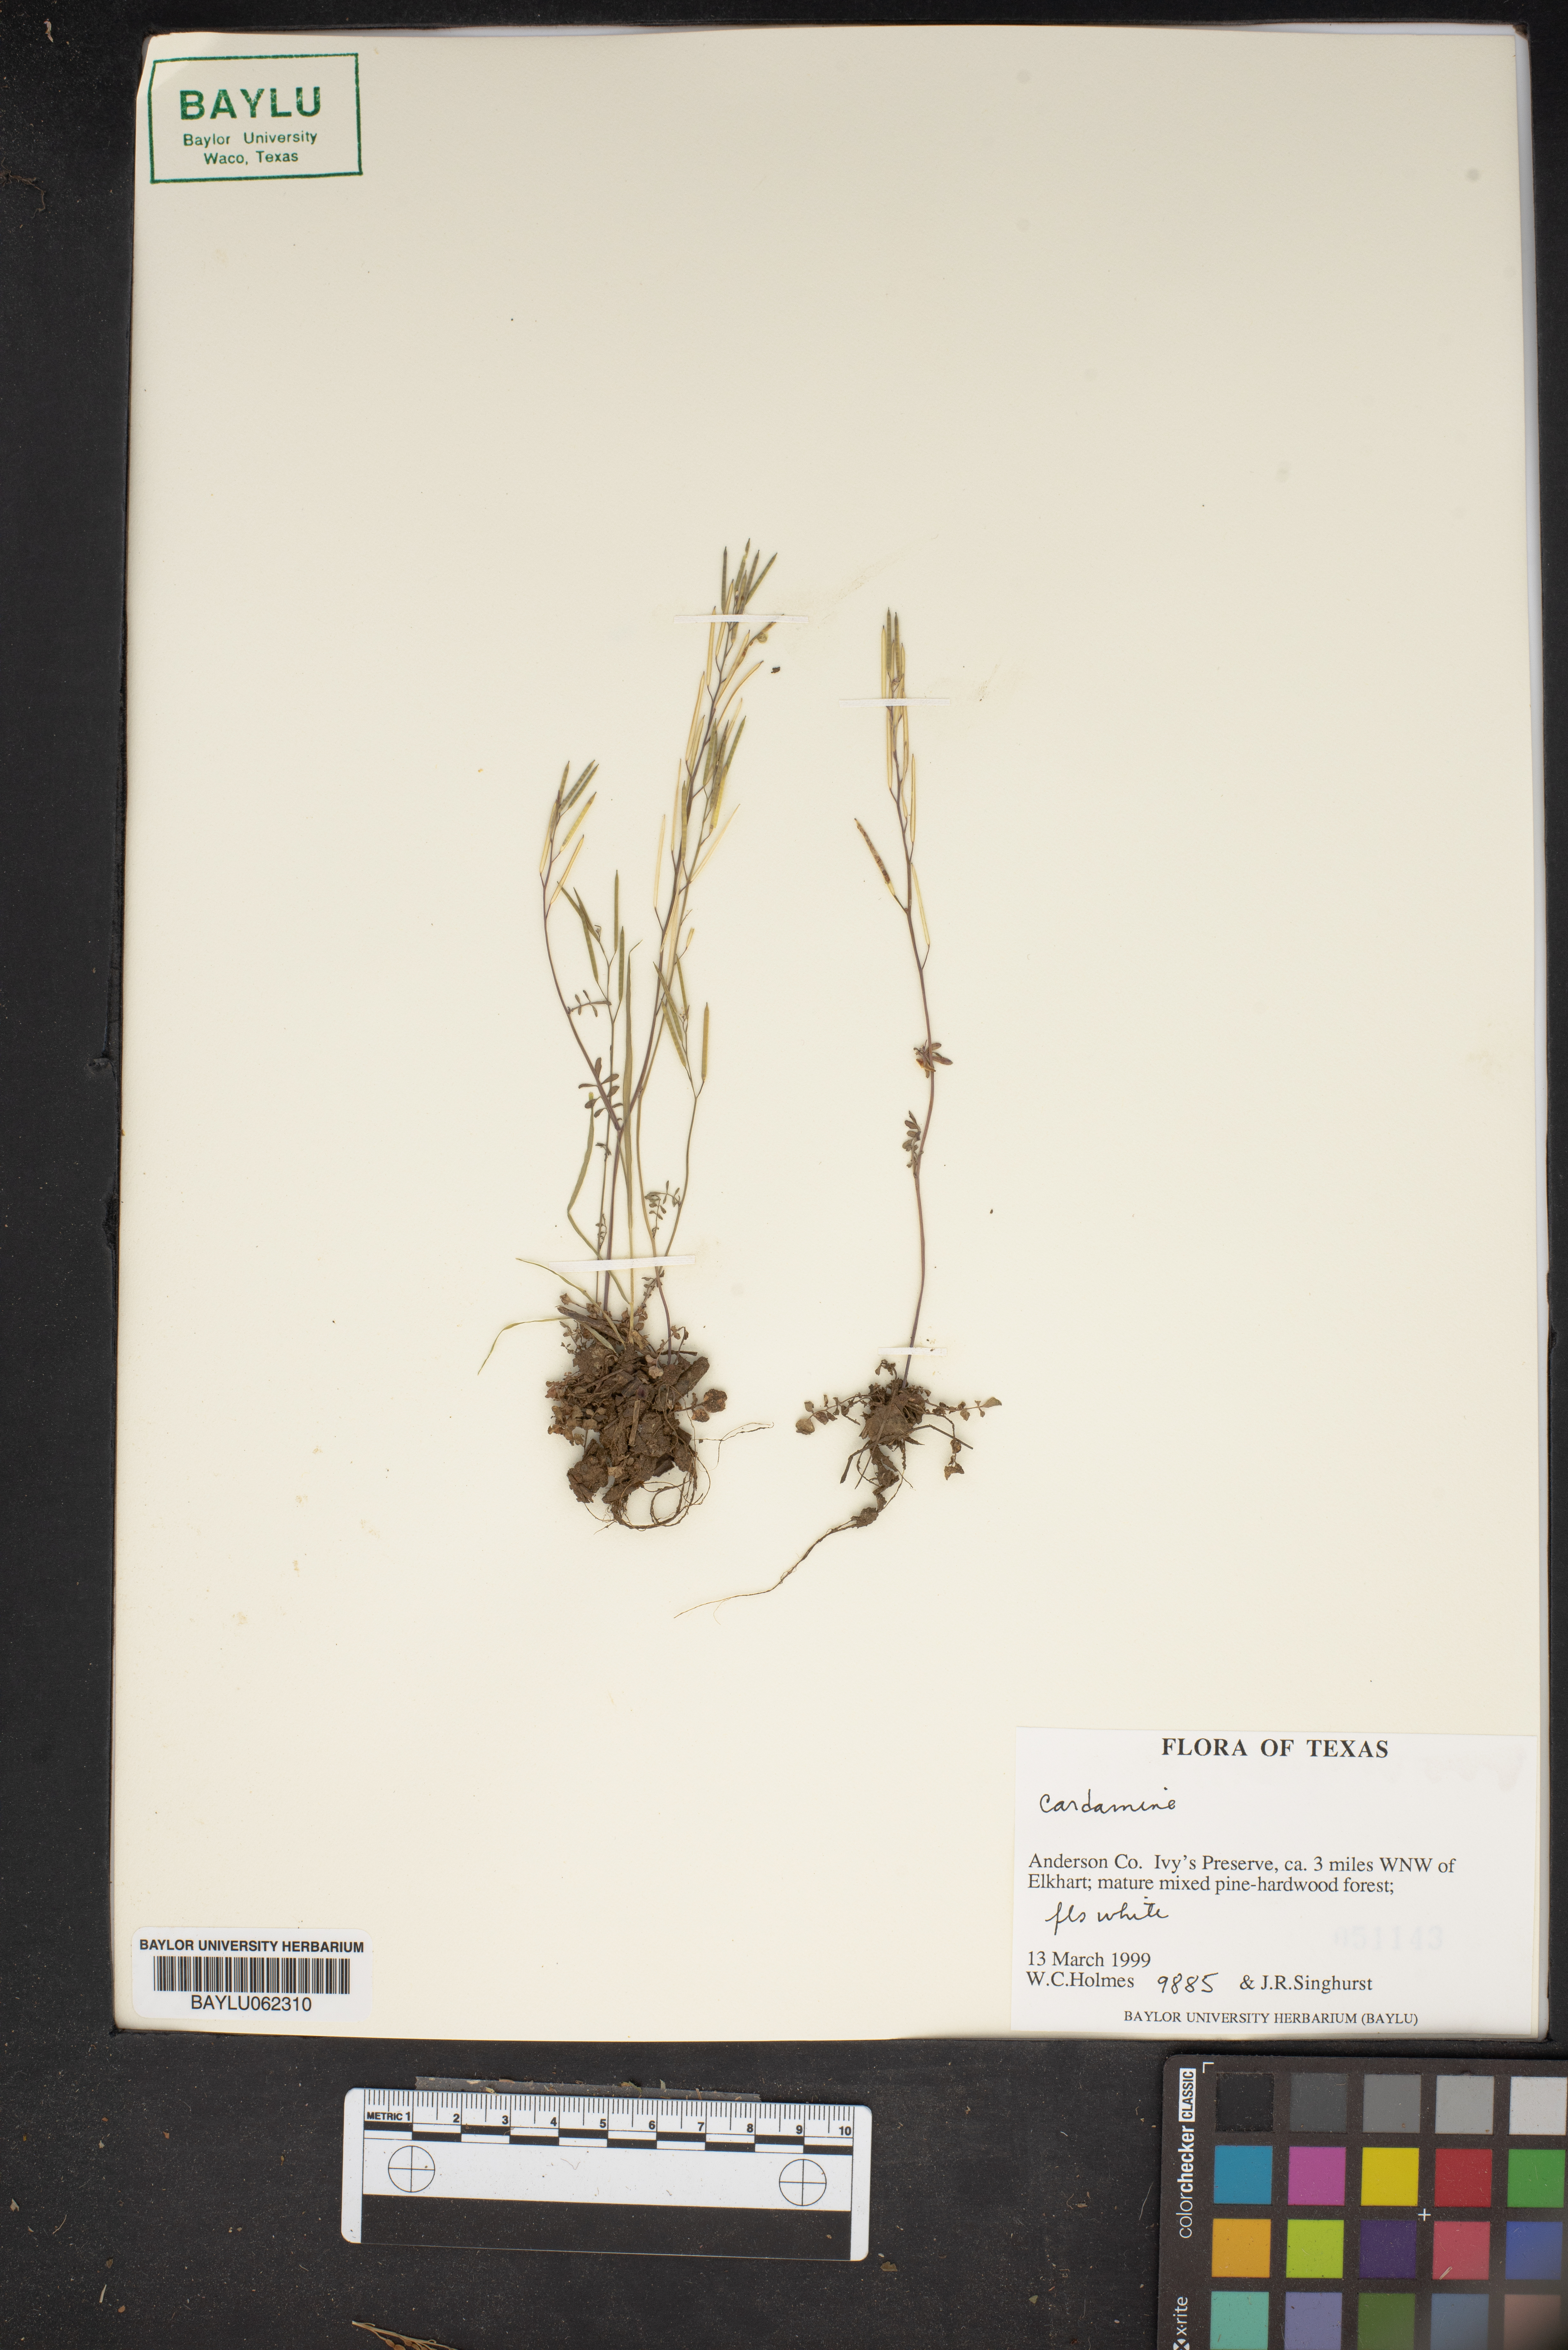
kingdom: Plantae
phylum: Tracheophyta
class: Magnoliopsida
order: Brassicales
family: Brassicaceae
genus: Cardamine
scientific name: Cardamine
